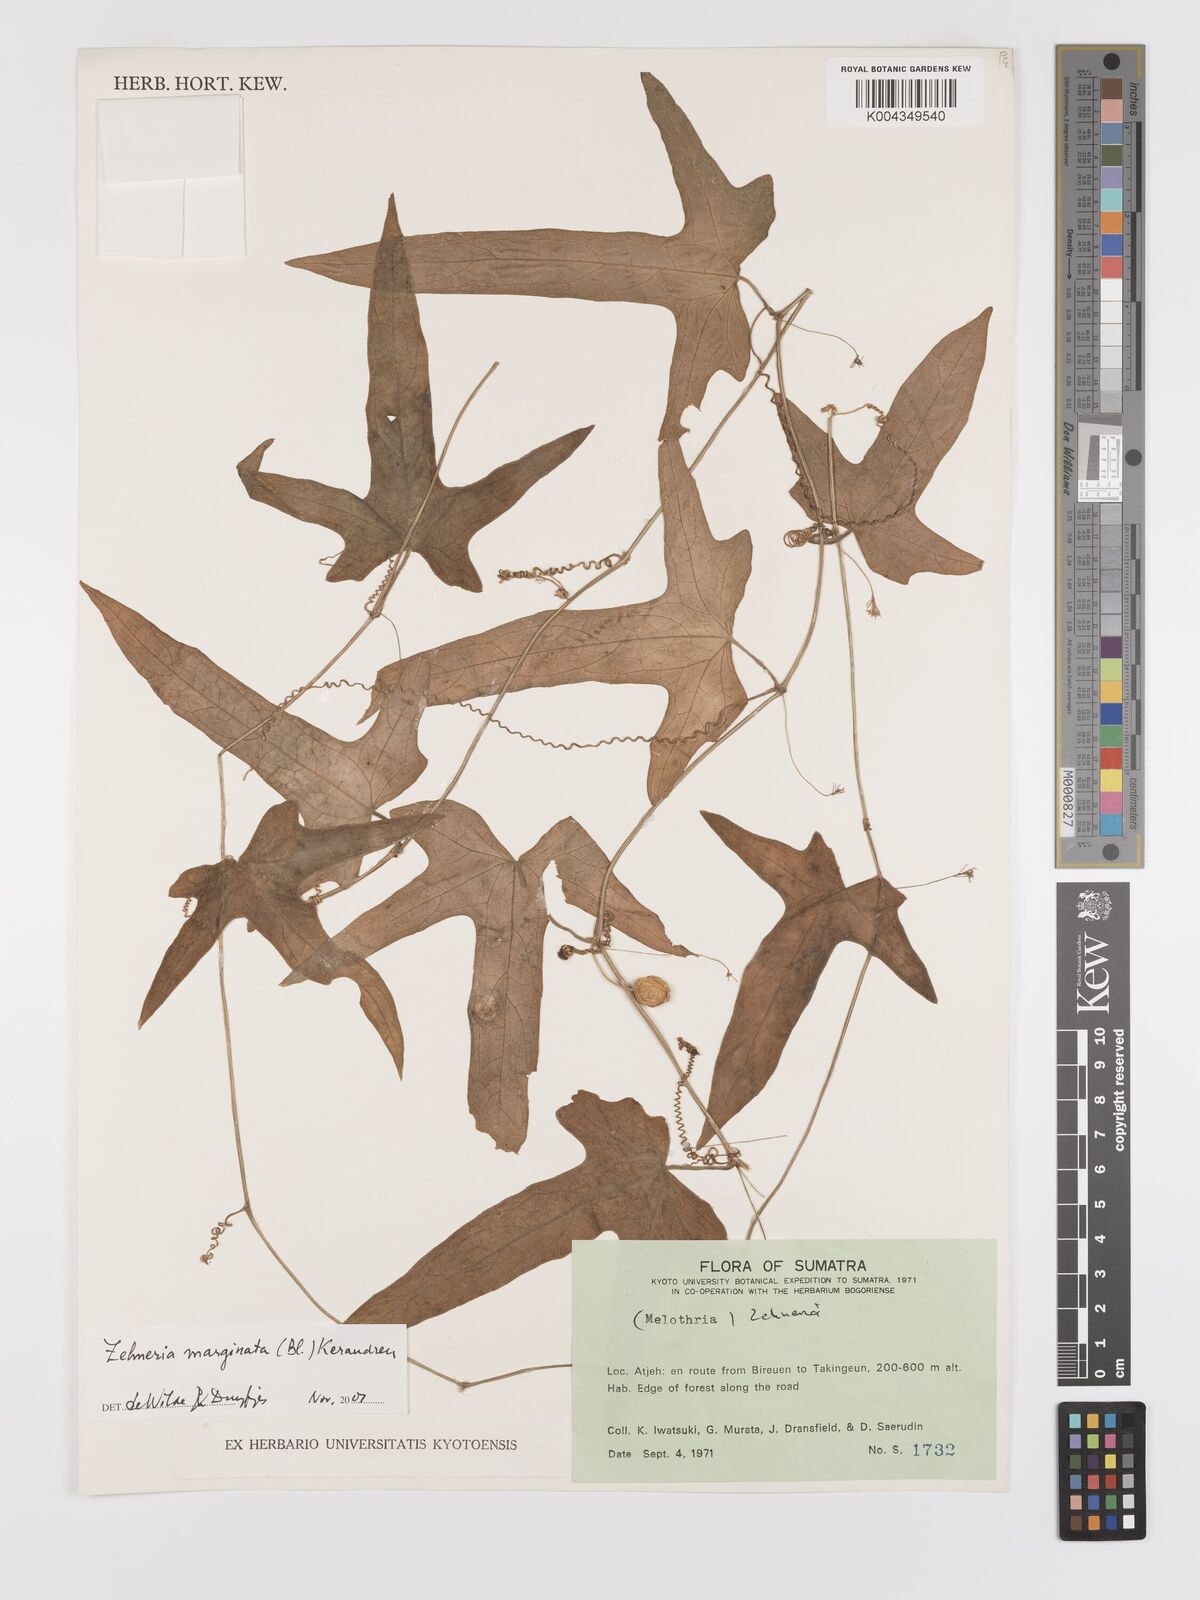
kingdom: Plantae
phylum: Tracheophyta
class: Magnoliopsida
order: Cucurbitales
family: Cucurbitaceae
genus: Scopellaria
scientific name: Scopellaria marginata
